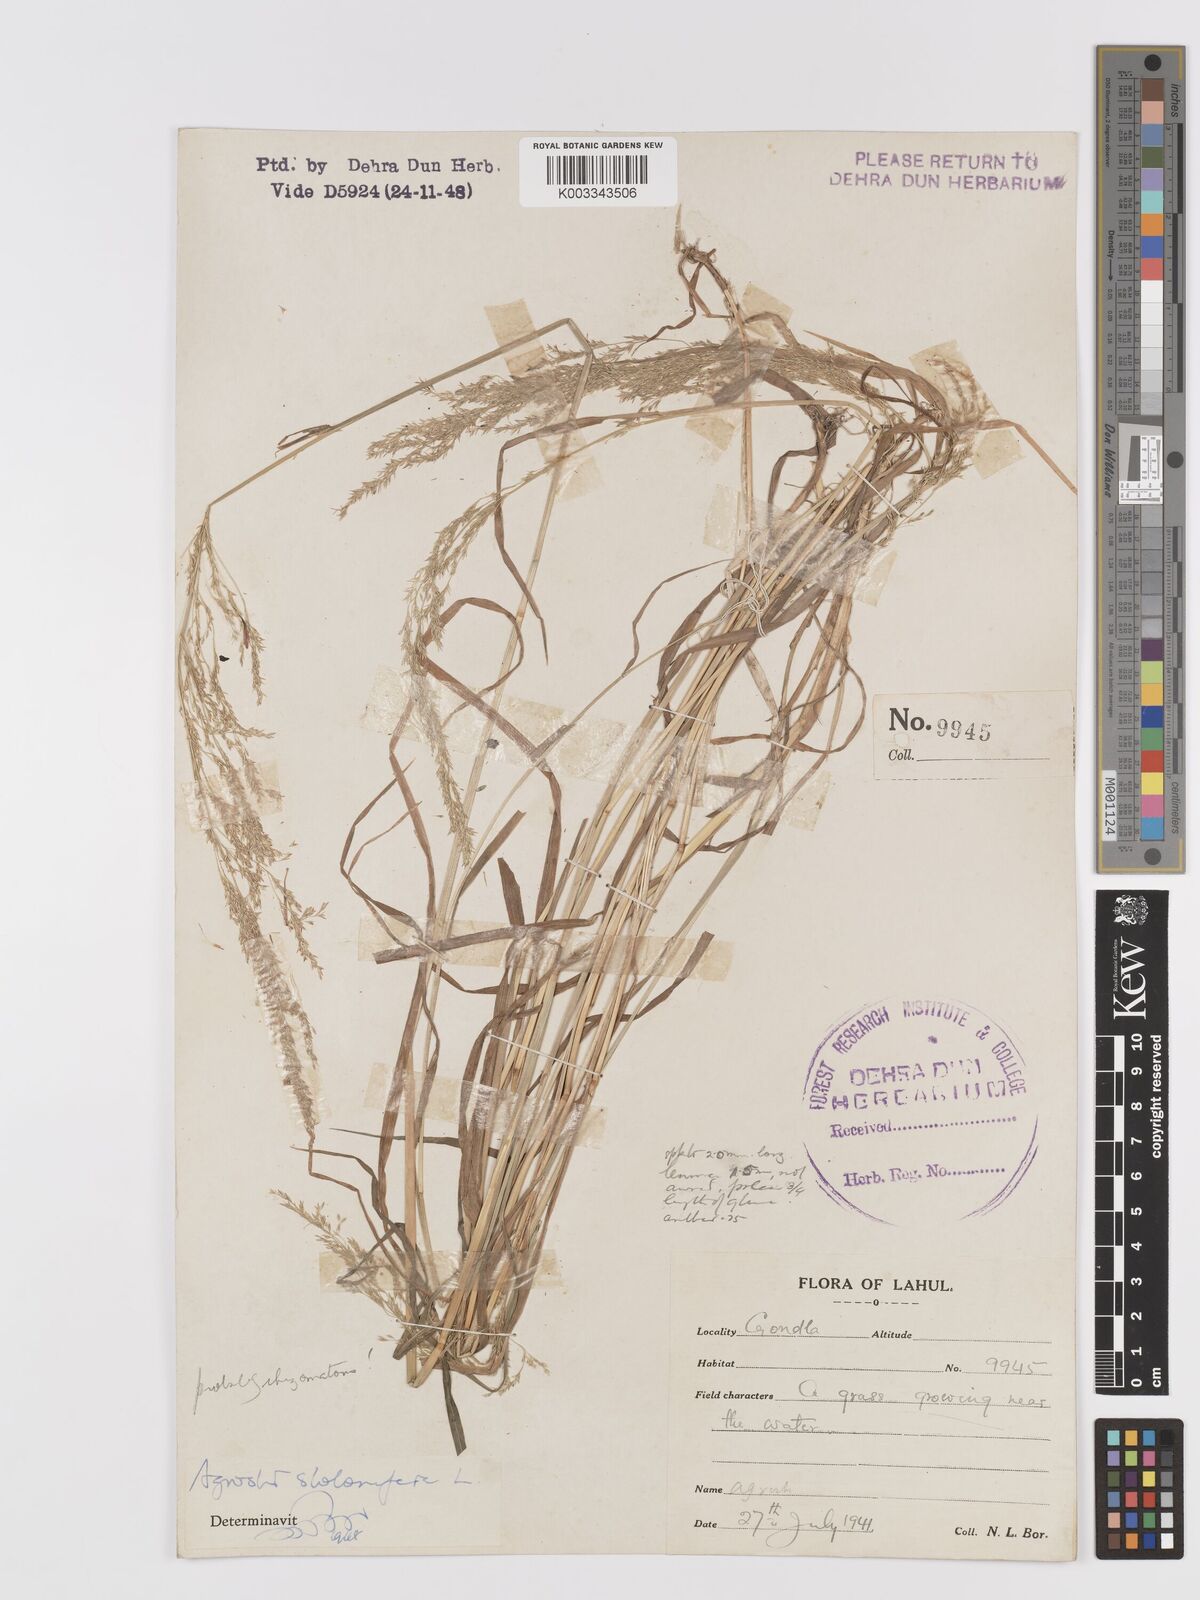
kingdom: Plantae
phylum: Tracheophyta
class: Liliopsida
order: Poales
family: Poaceae
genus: Agrostis
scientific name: Agrostis gigantea
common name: Black bent
